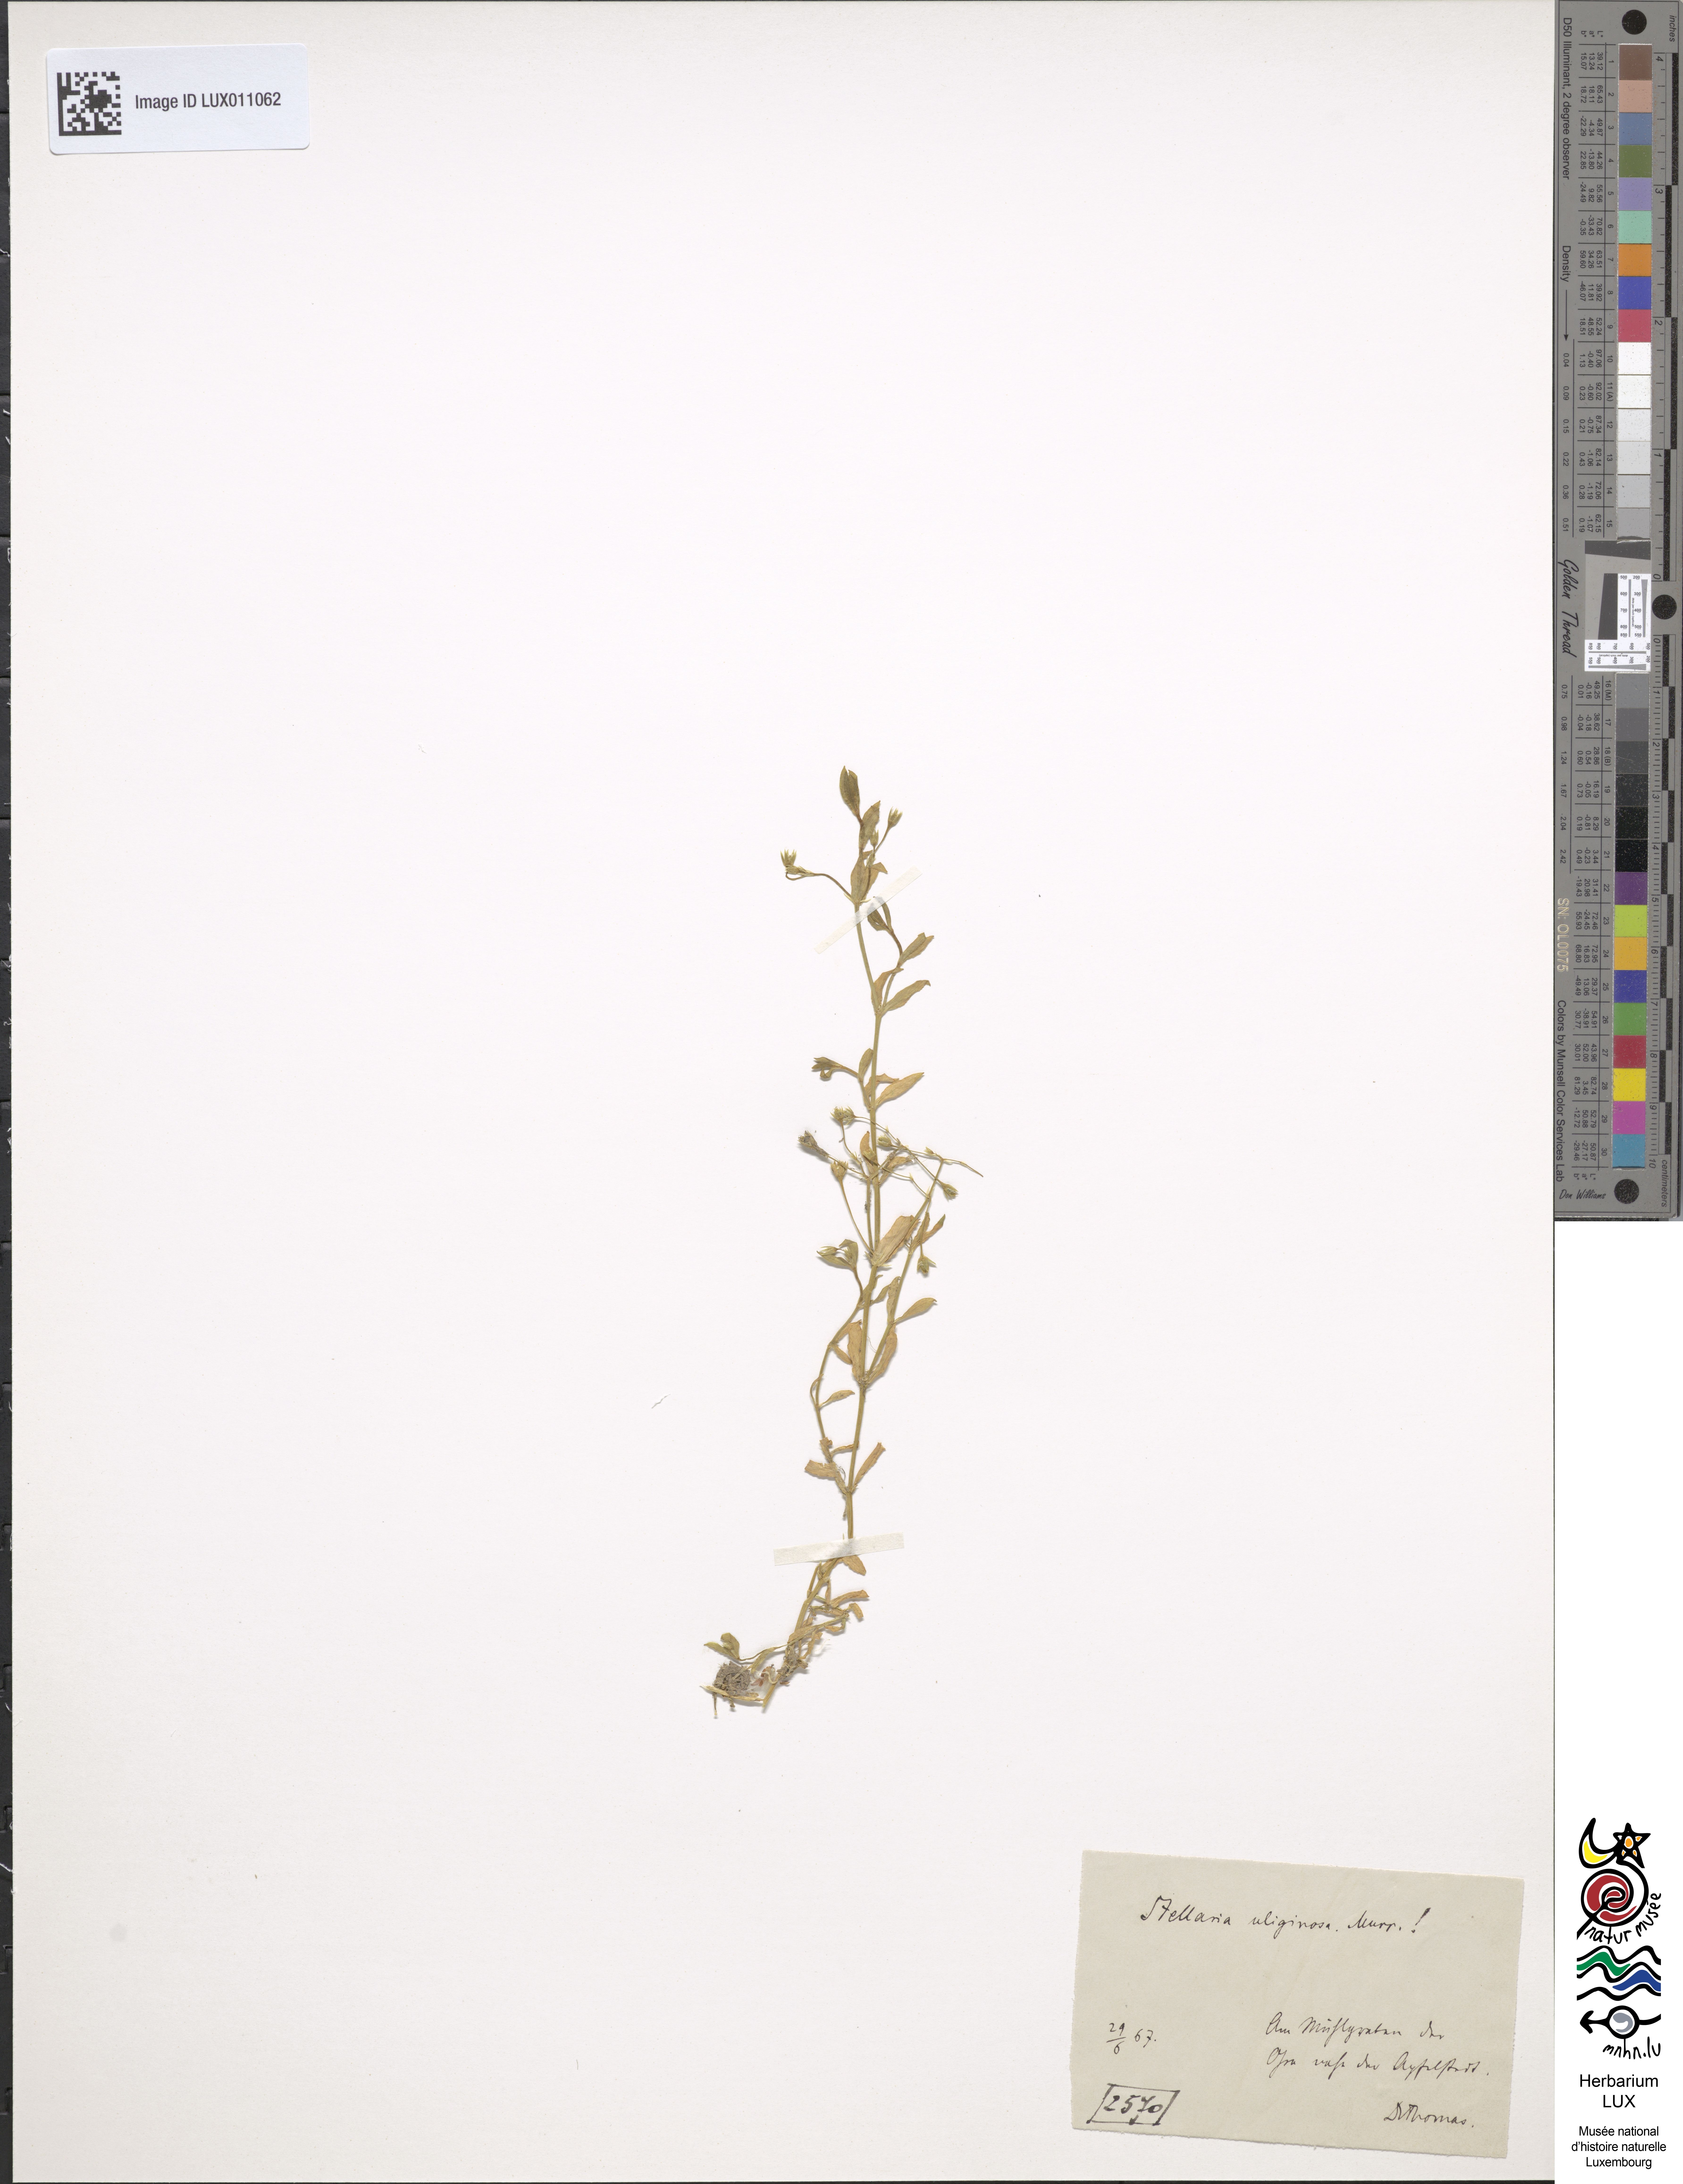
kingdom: Plantae
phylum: Tracheophyta
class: Magnoliopsida
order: Caryophyllales
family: Caryophyllaceae
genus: Stellaria
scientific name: Stellaria alsine
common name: Bog stitchwort
